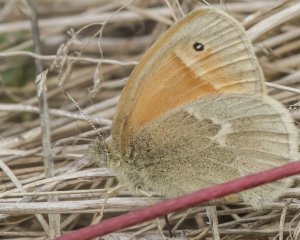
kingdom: Animalia
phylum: Arthropoda
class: Insecta
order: Lepidoptera
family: Nymphalidae
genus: Coenonympha
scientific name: Coenonympha tullia
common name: Large Heath
